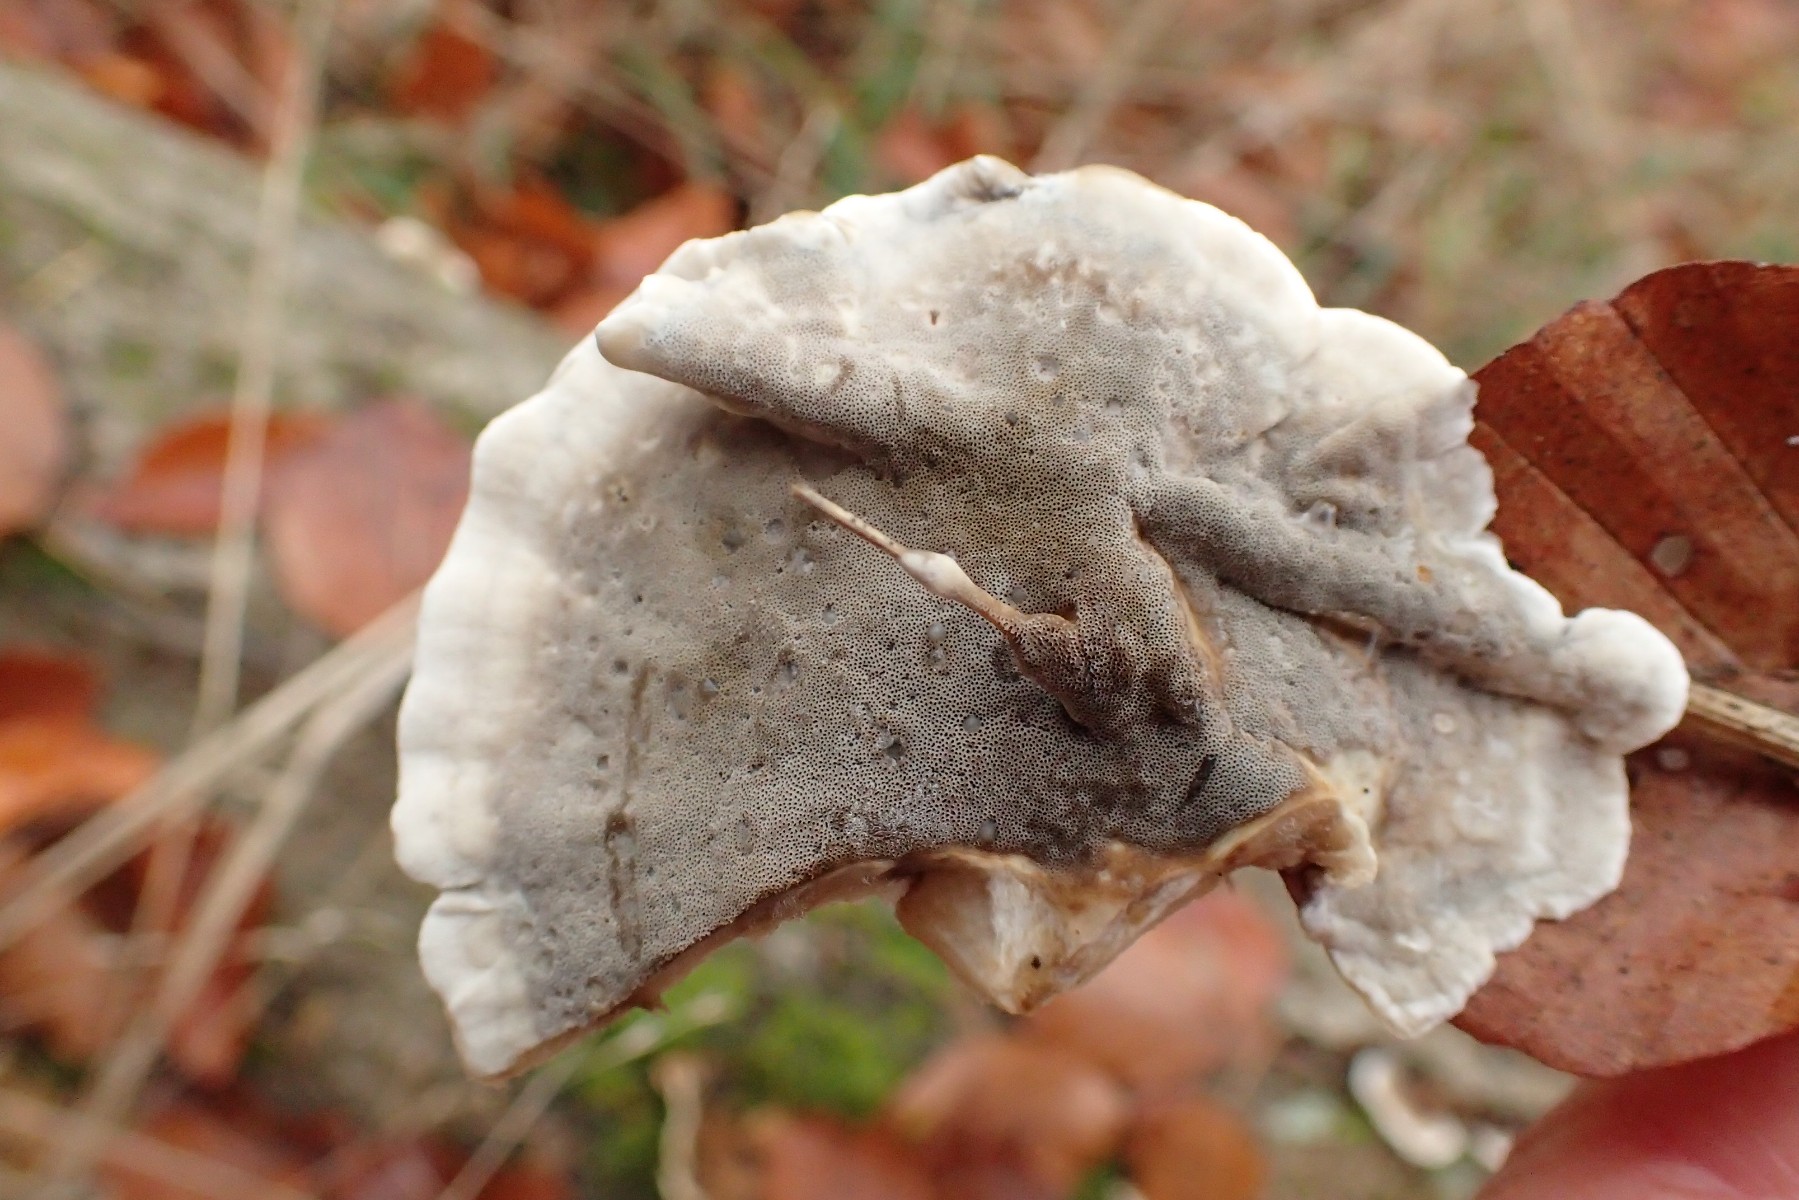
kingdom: Fungi
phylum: Basidiomycota
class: Agaricomycetes
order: Polyporales
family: Phanerochaetaceae
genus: Bjerkandera
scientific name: Bjerkandera adusta
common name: sveden sodporesvamp
